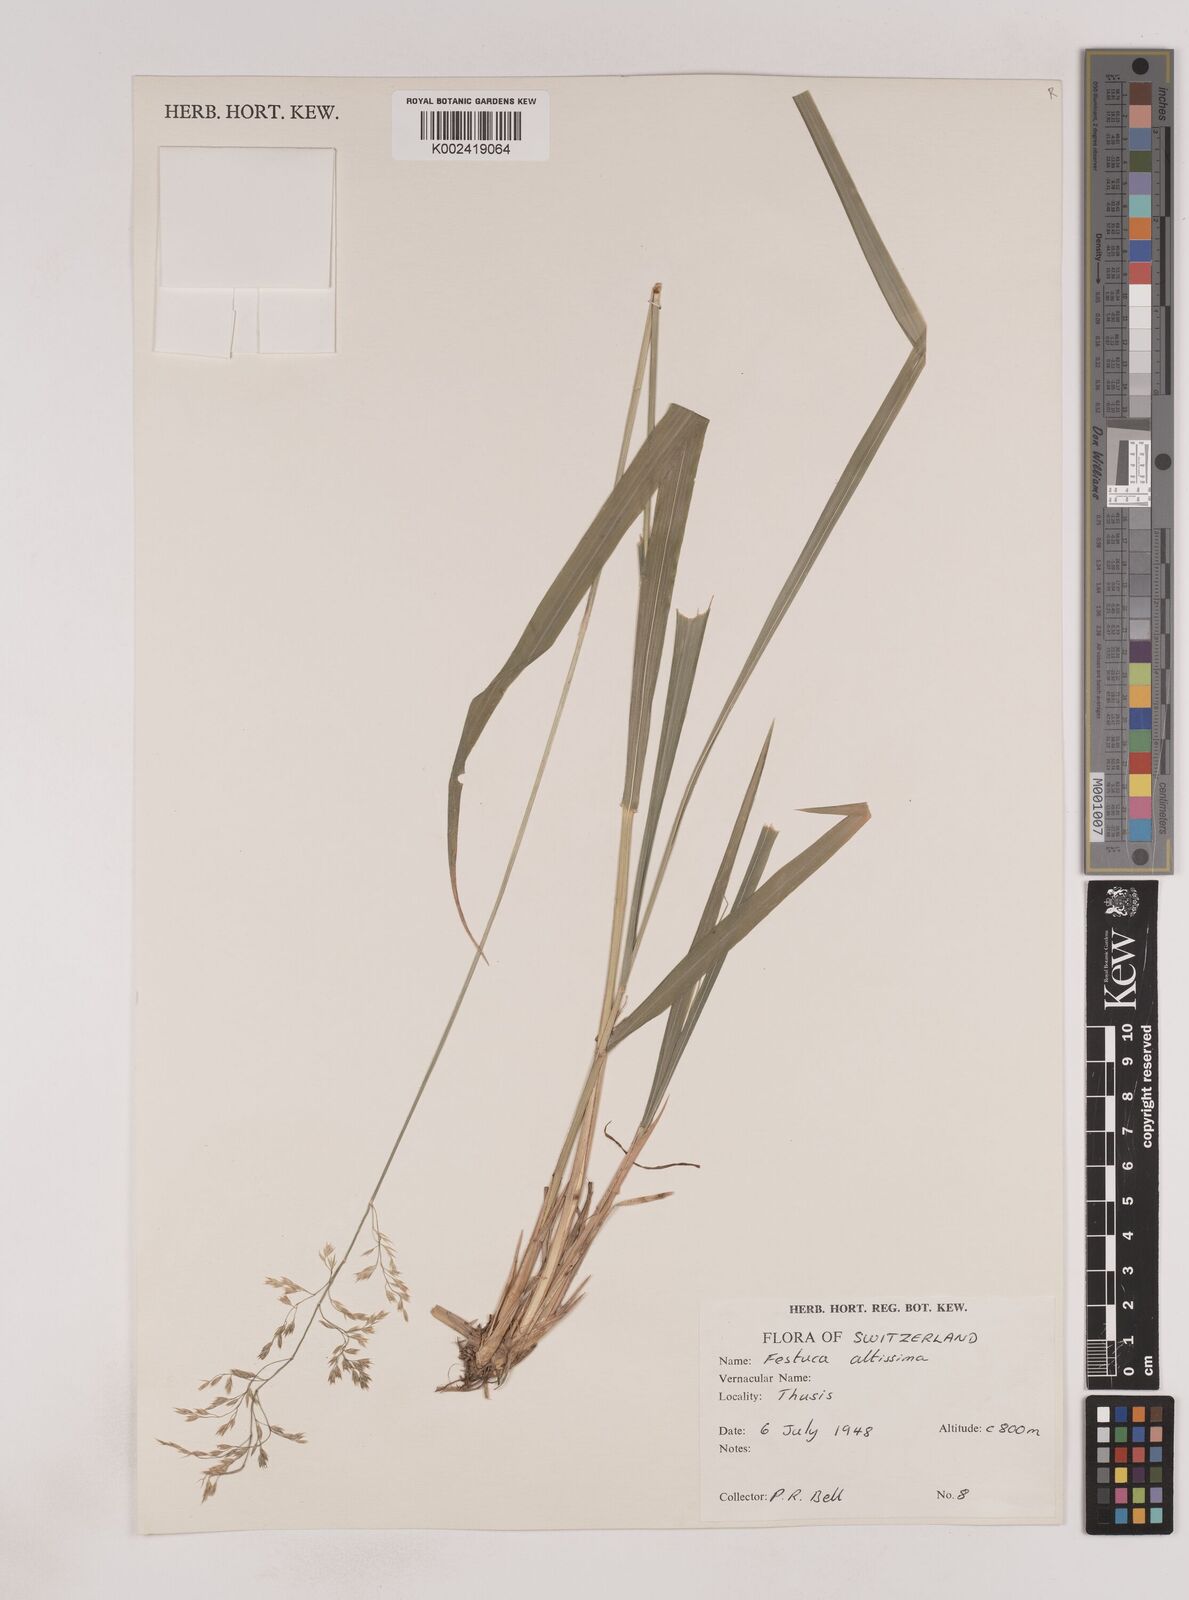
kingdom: Plantae
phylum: Tracheophyta
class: Liliopsida
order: Poales
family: Poaceae
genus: Festuca
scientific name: Festuca drymeja
